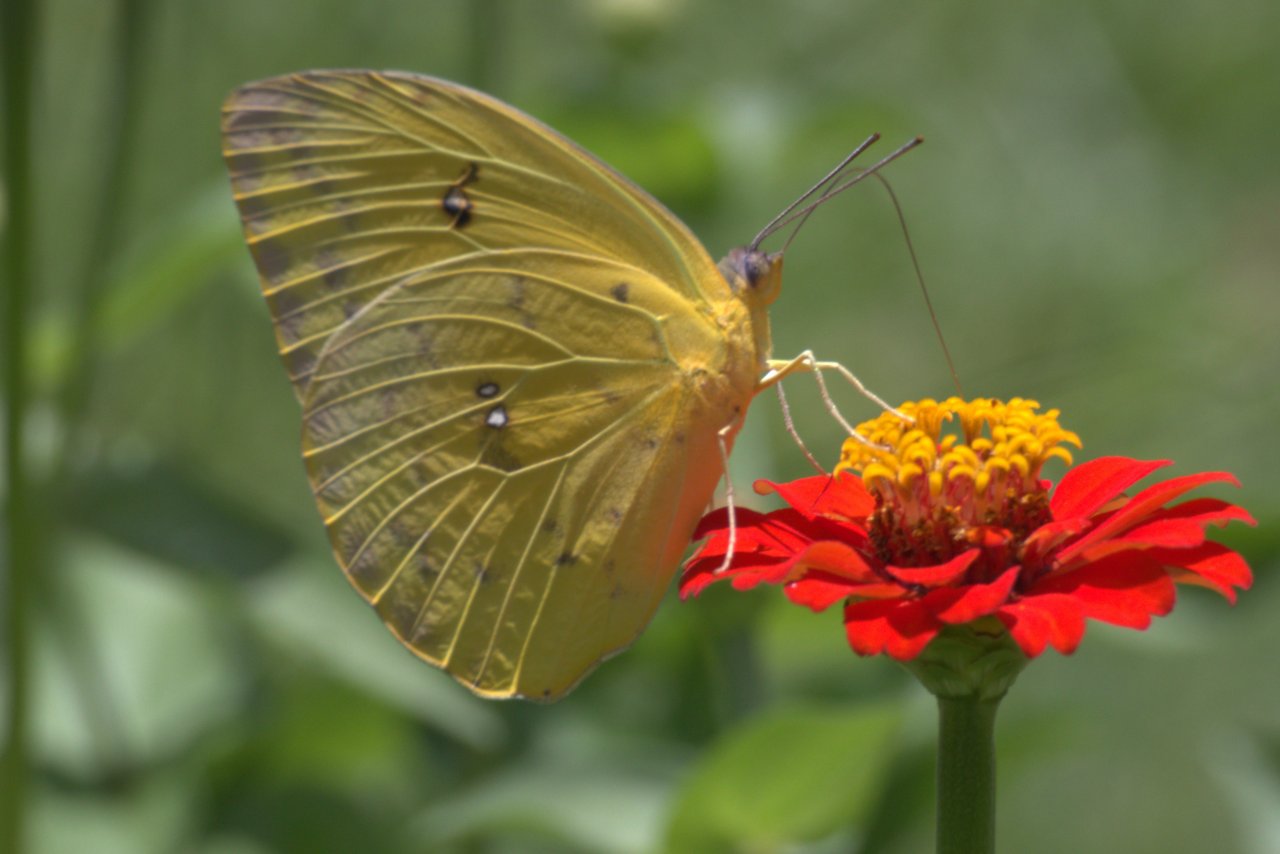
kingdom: Animalia
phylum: Arthropoda
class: Insecta
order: Lepidoptera
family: Pieridae
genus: Phoebis
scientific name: Phoebis philea
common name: Orange-barred Sulphur
